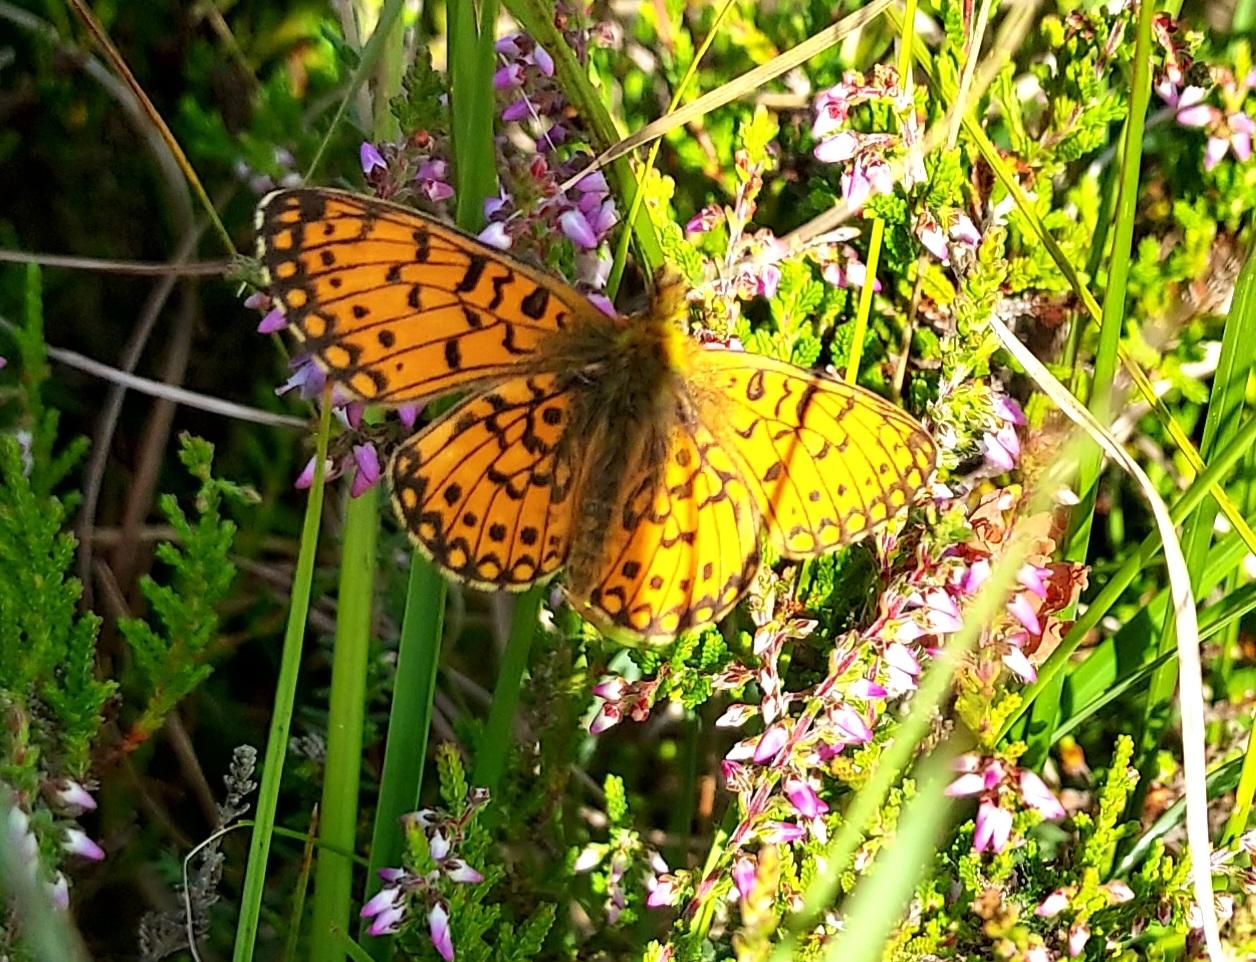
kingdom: Animalia
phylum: Arthropoda
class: Insecta
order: Lepidoptera
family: Nymphalidae
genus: Boloria
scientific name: Boloria selene
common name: Brunlig perlemorsommerfugl
